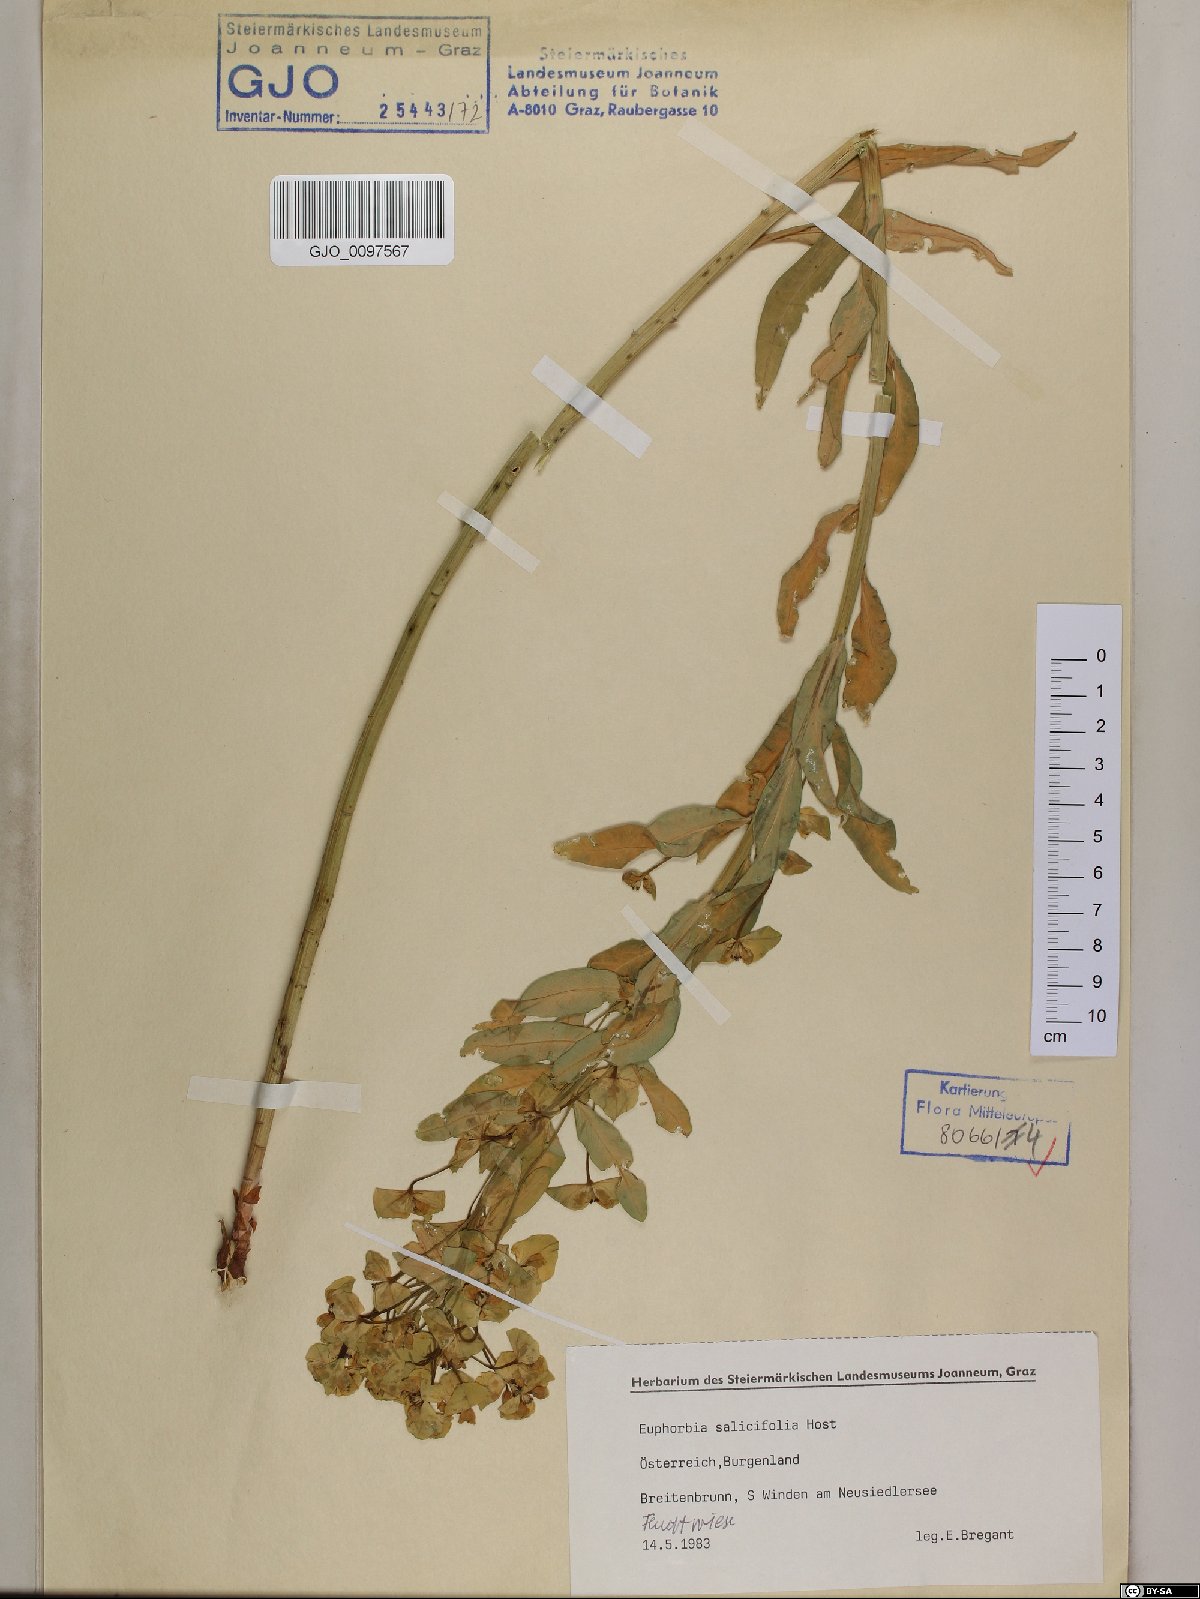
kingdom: Plantae
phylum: Tracheophyta
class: Magnoliopsida
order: Malpighiales
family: Euphorbiaceae
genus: Euphorbia
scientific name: Euphorbia salicifolia
